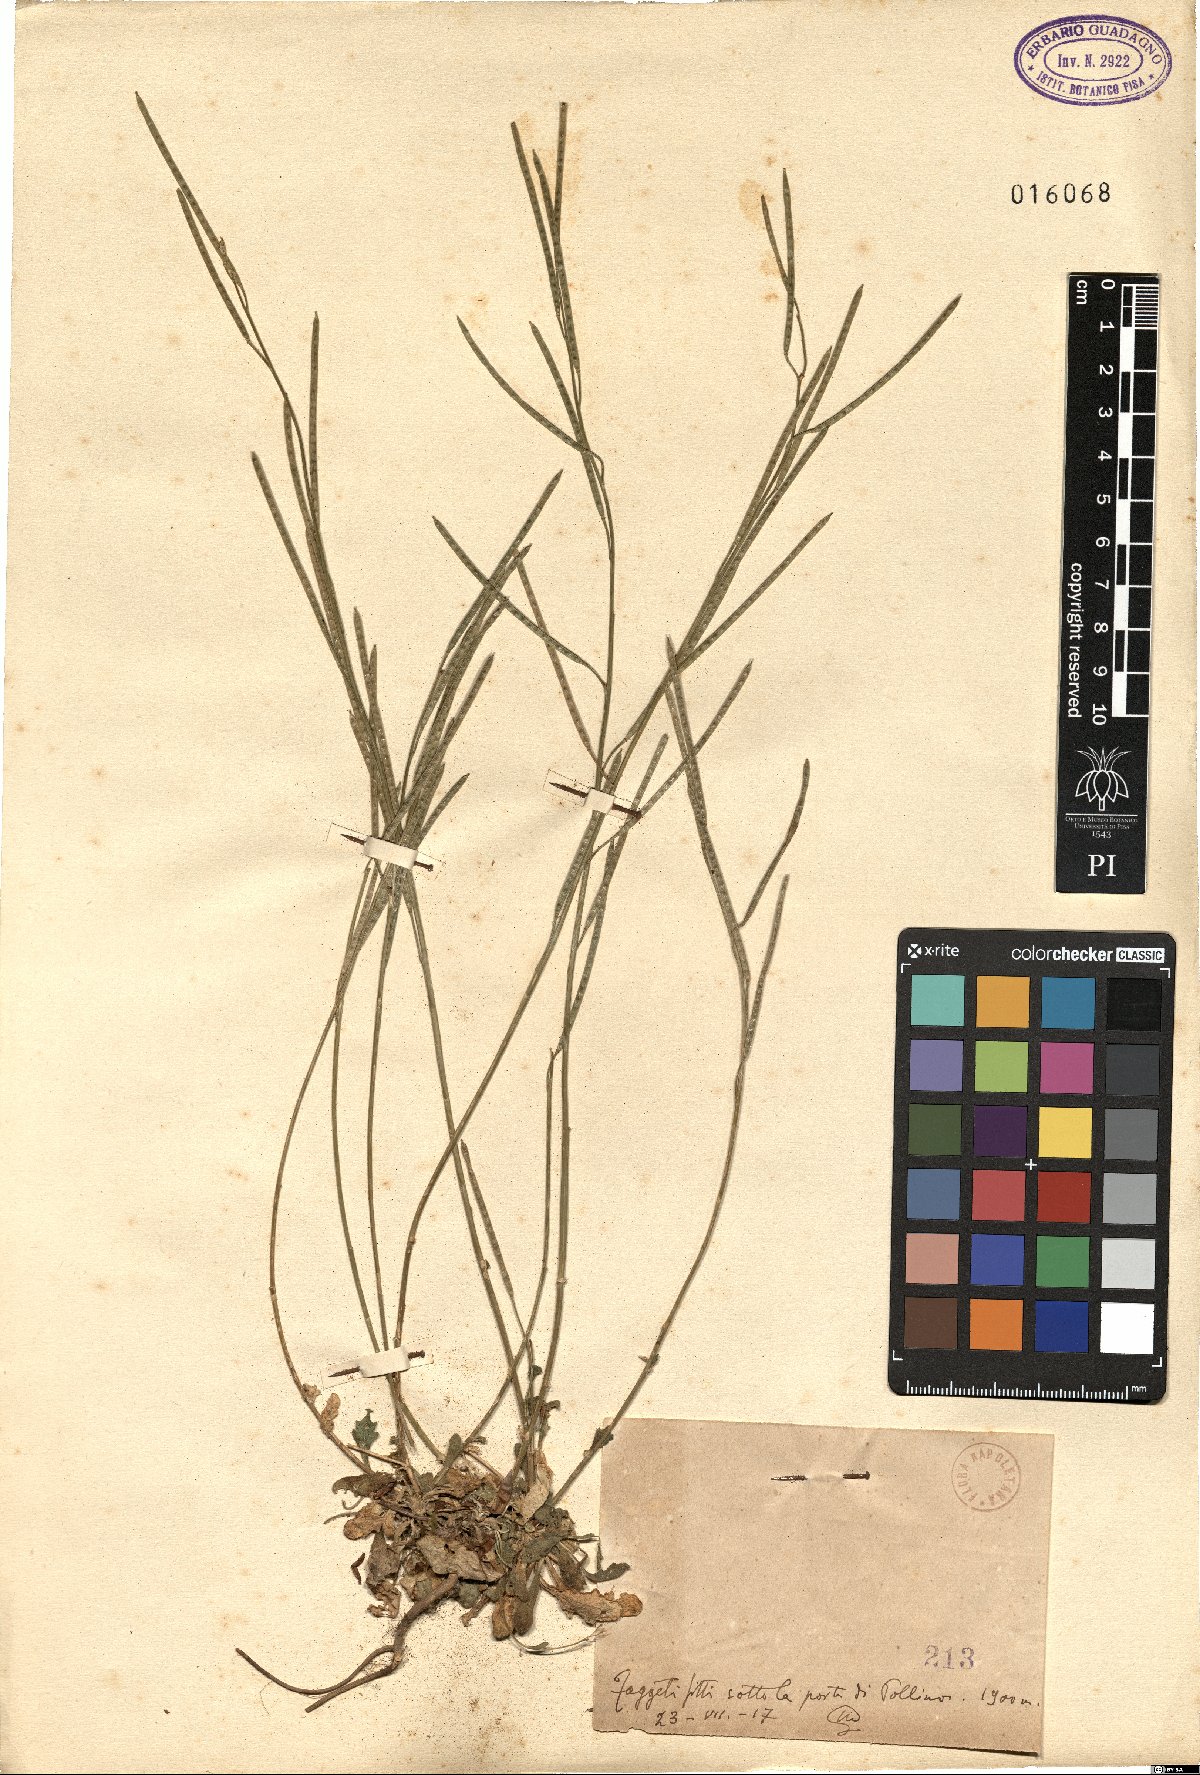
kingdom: Plantae
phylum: Tracheophyta
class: Magnoliopsida
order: Brassicales
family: Brassicaceae
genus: Arabis
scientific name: Arabis
